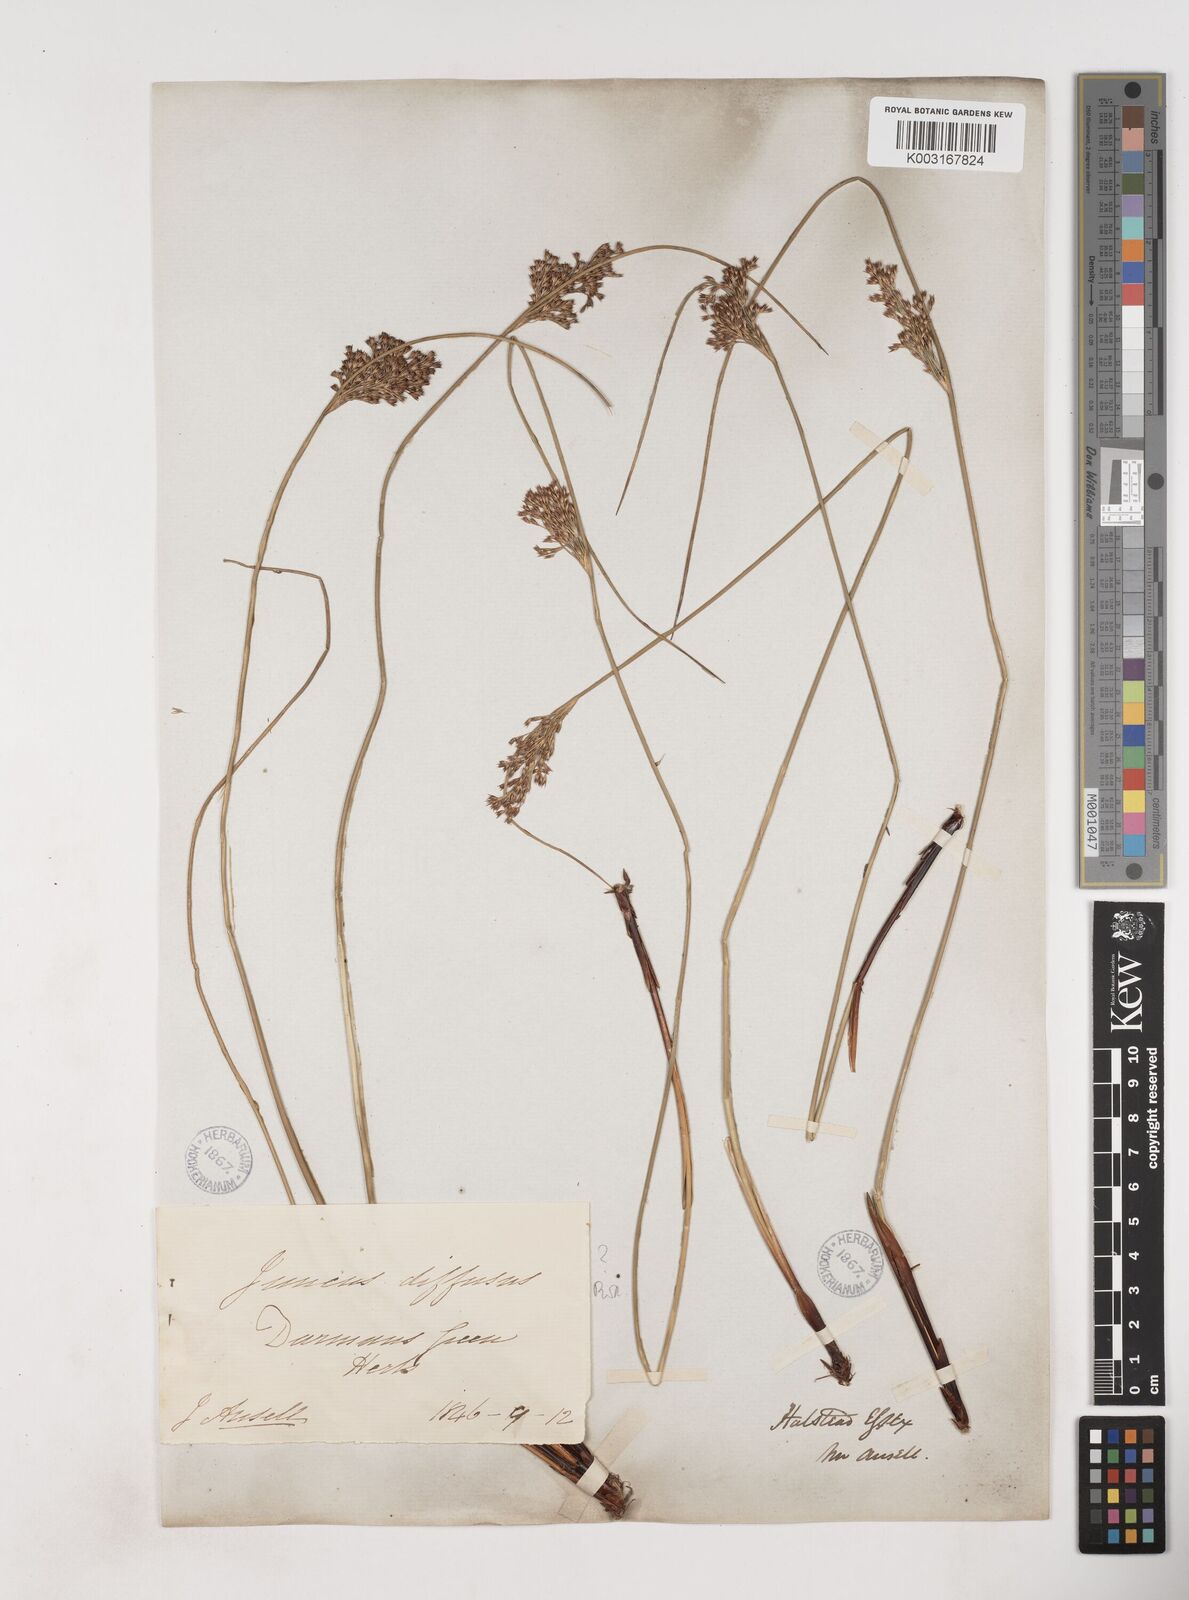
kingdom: Plantae
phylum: Tracheophyta
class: Liliopsida
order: Poales
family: Juncaceae
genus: Juncus
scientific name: Juncus effusus
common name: Soft rush
